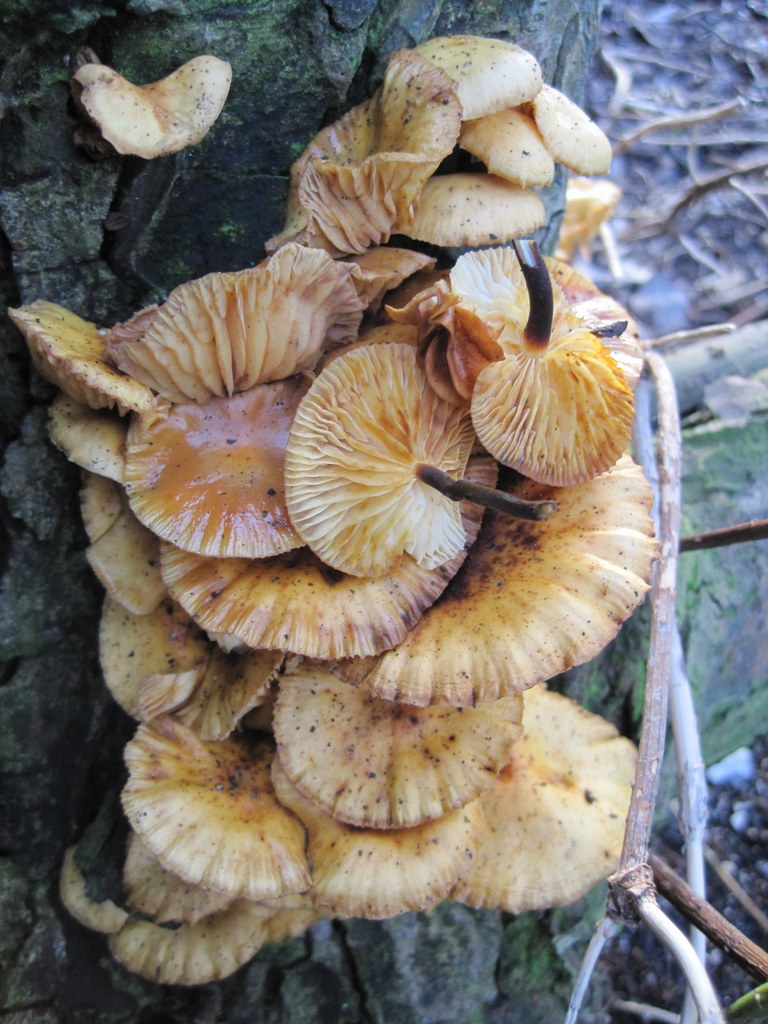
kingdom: Fungi
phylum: Basidiomycota
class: Agaricomycetes
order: Agaricales
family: Physalacriaceae
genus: Flammulina
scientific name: Flammulina velutipes
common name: gul fløjlsfod
